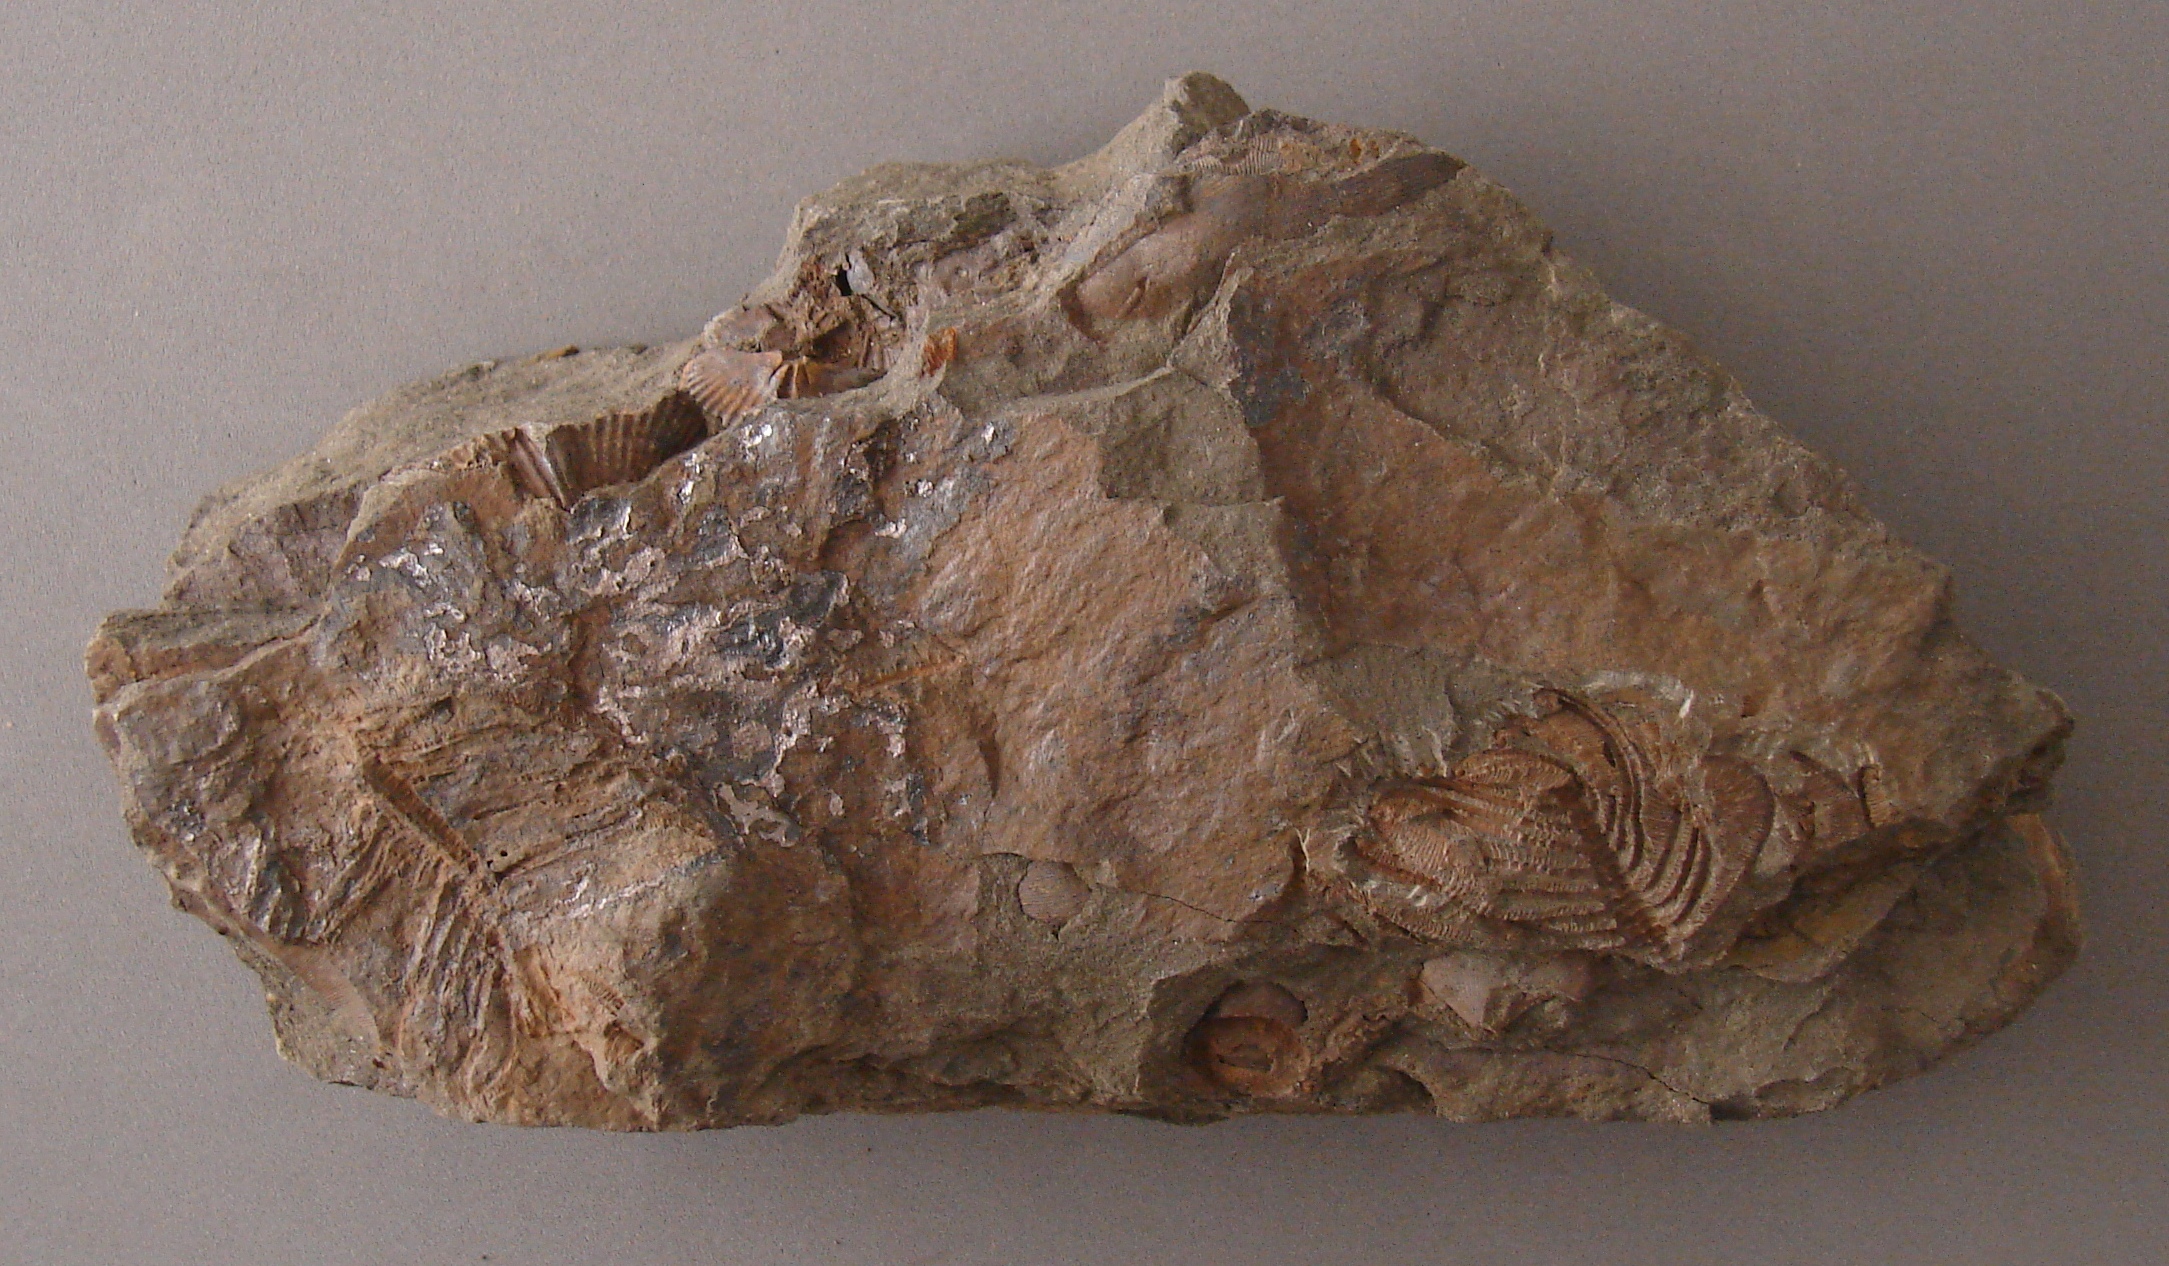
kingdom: Animalia
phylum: Echinodermata
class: Crinoidea
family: Melocrinitidae
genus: Ctenocrinus
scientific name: Ctenocrinus
